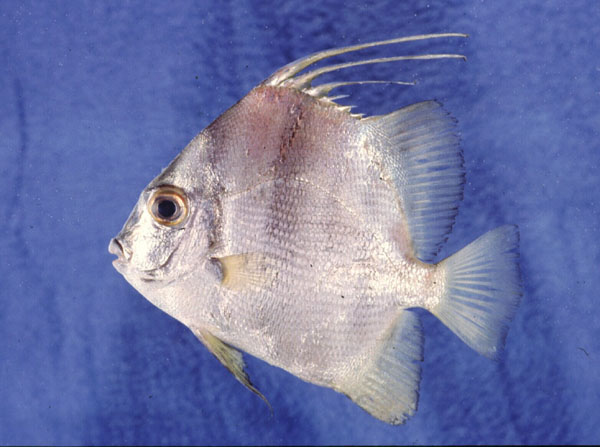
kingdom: Animalia
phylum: Chordata
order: Perciformes
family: Ephippidae
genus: Tripterodon
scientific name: Tripterodon orbis
